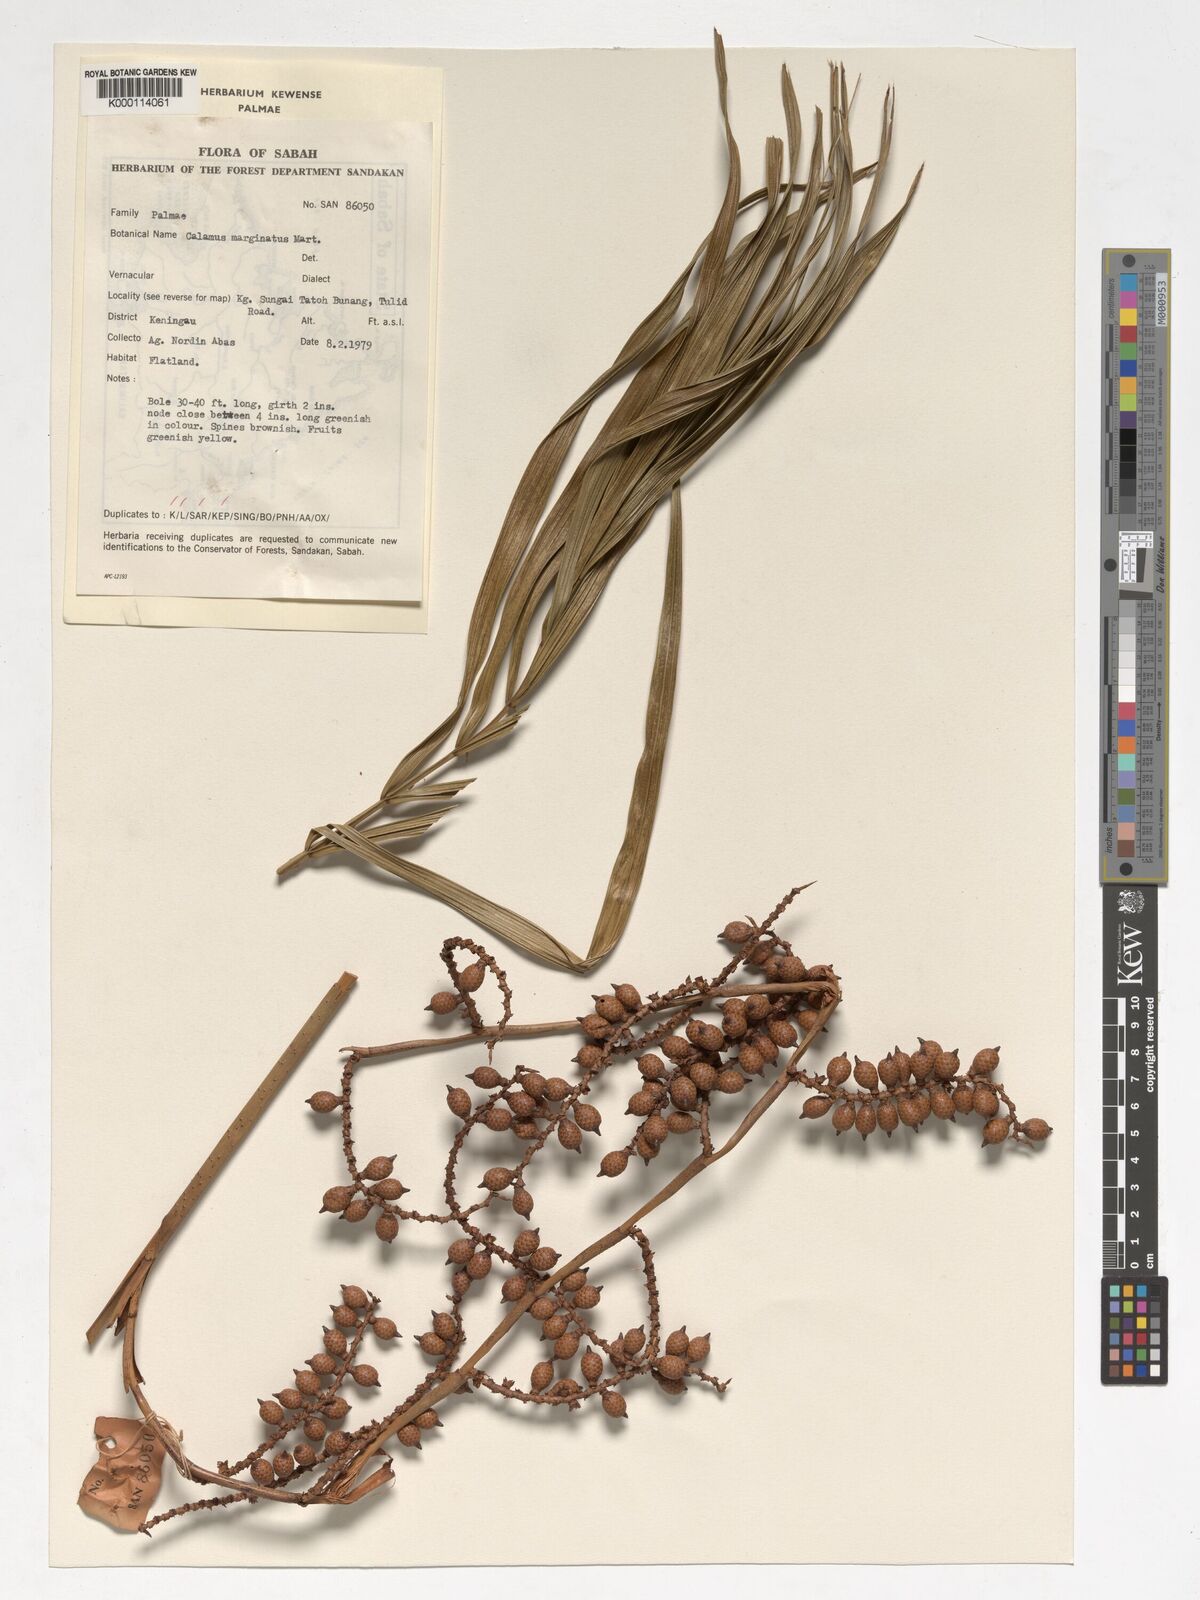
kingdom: Plantae
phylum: Tracheophyta
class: Liliopsida
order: Arecales
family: Arecaceae
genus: Calamus
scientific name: Calamus
